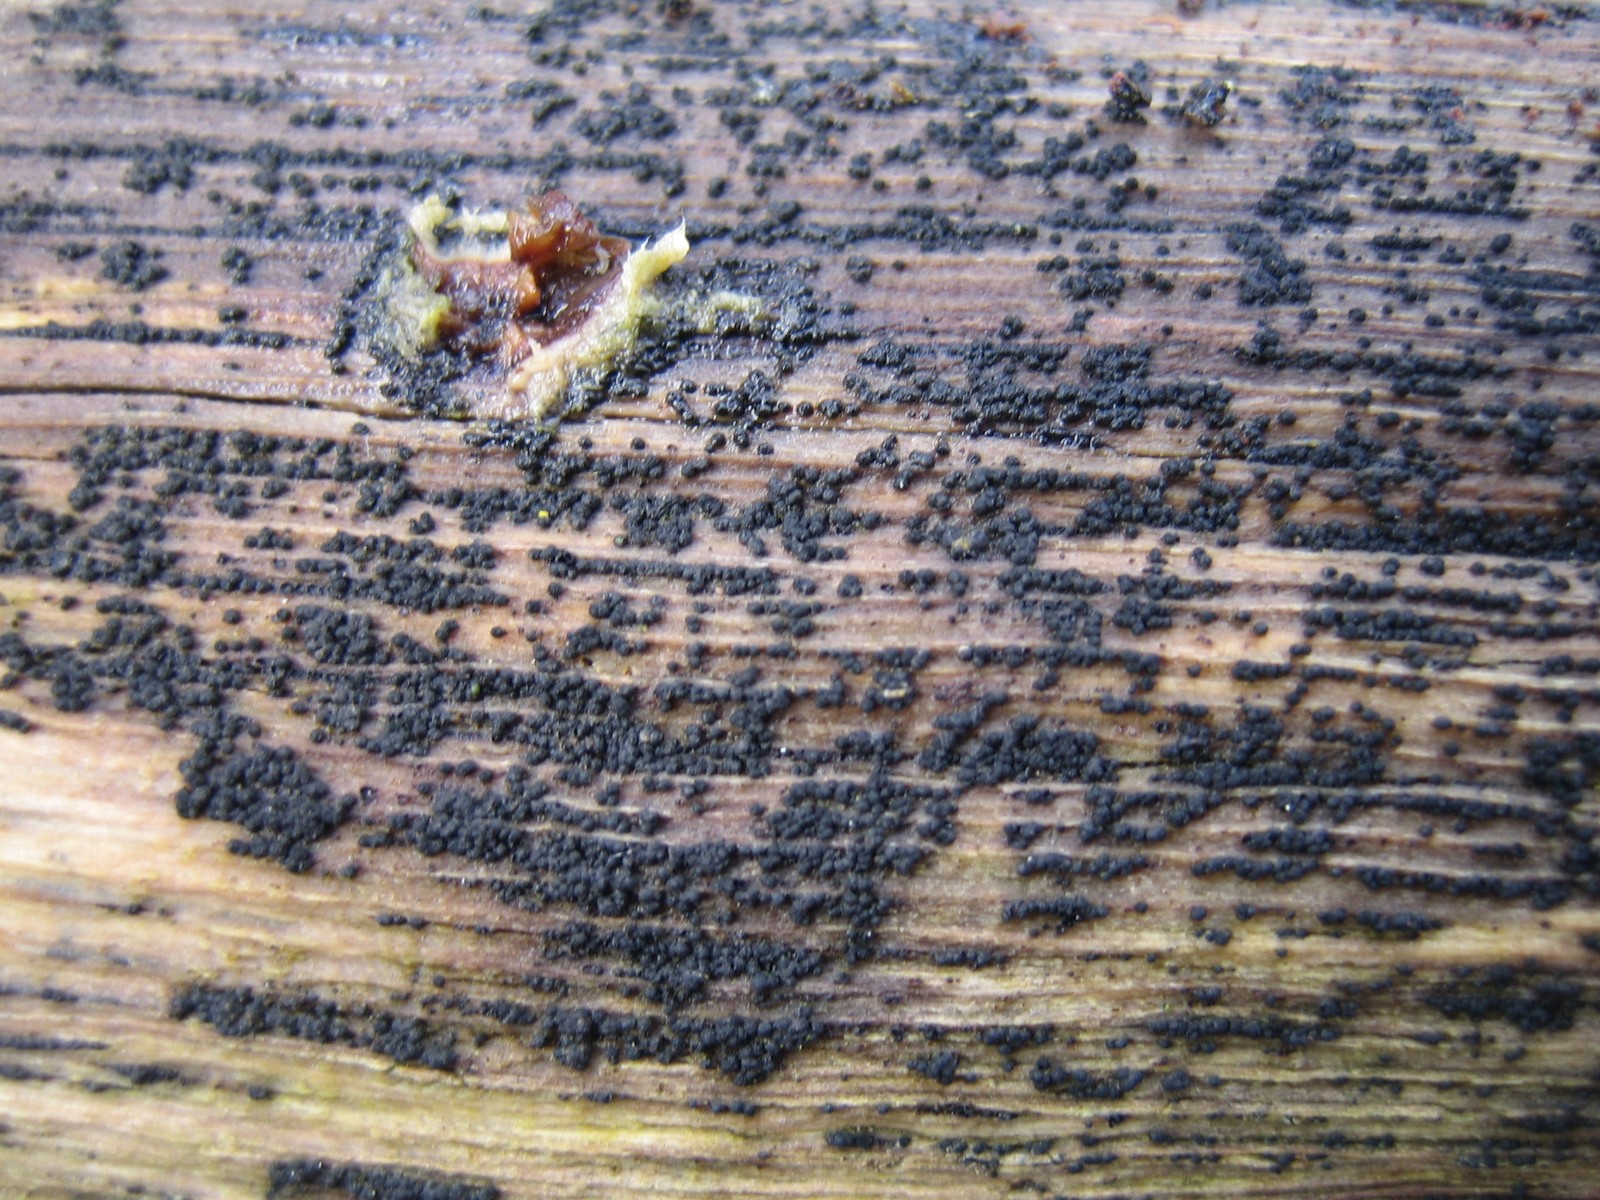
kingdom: Fungi
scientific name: Fungi
